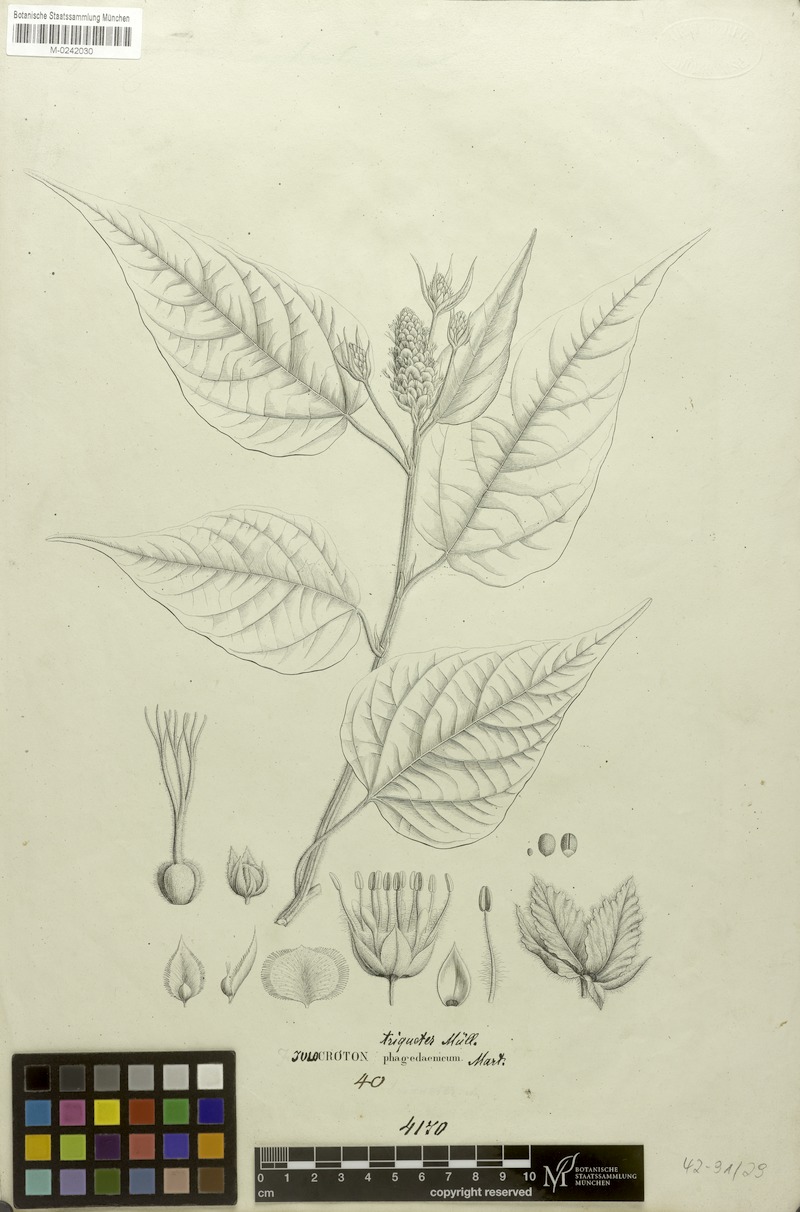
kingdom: Plantae
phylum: Tracheophyta
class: Magnoliopsida
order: Malpighiales
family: Euphorbiaceae
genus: Croton
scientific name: Croton triqueter
